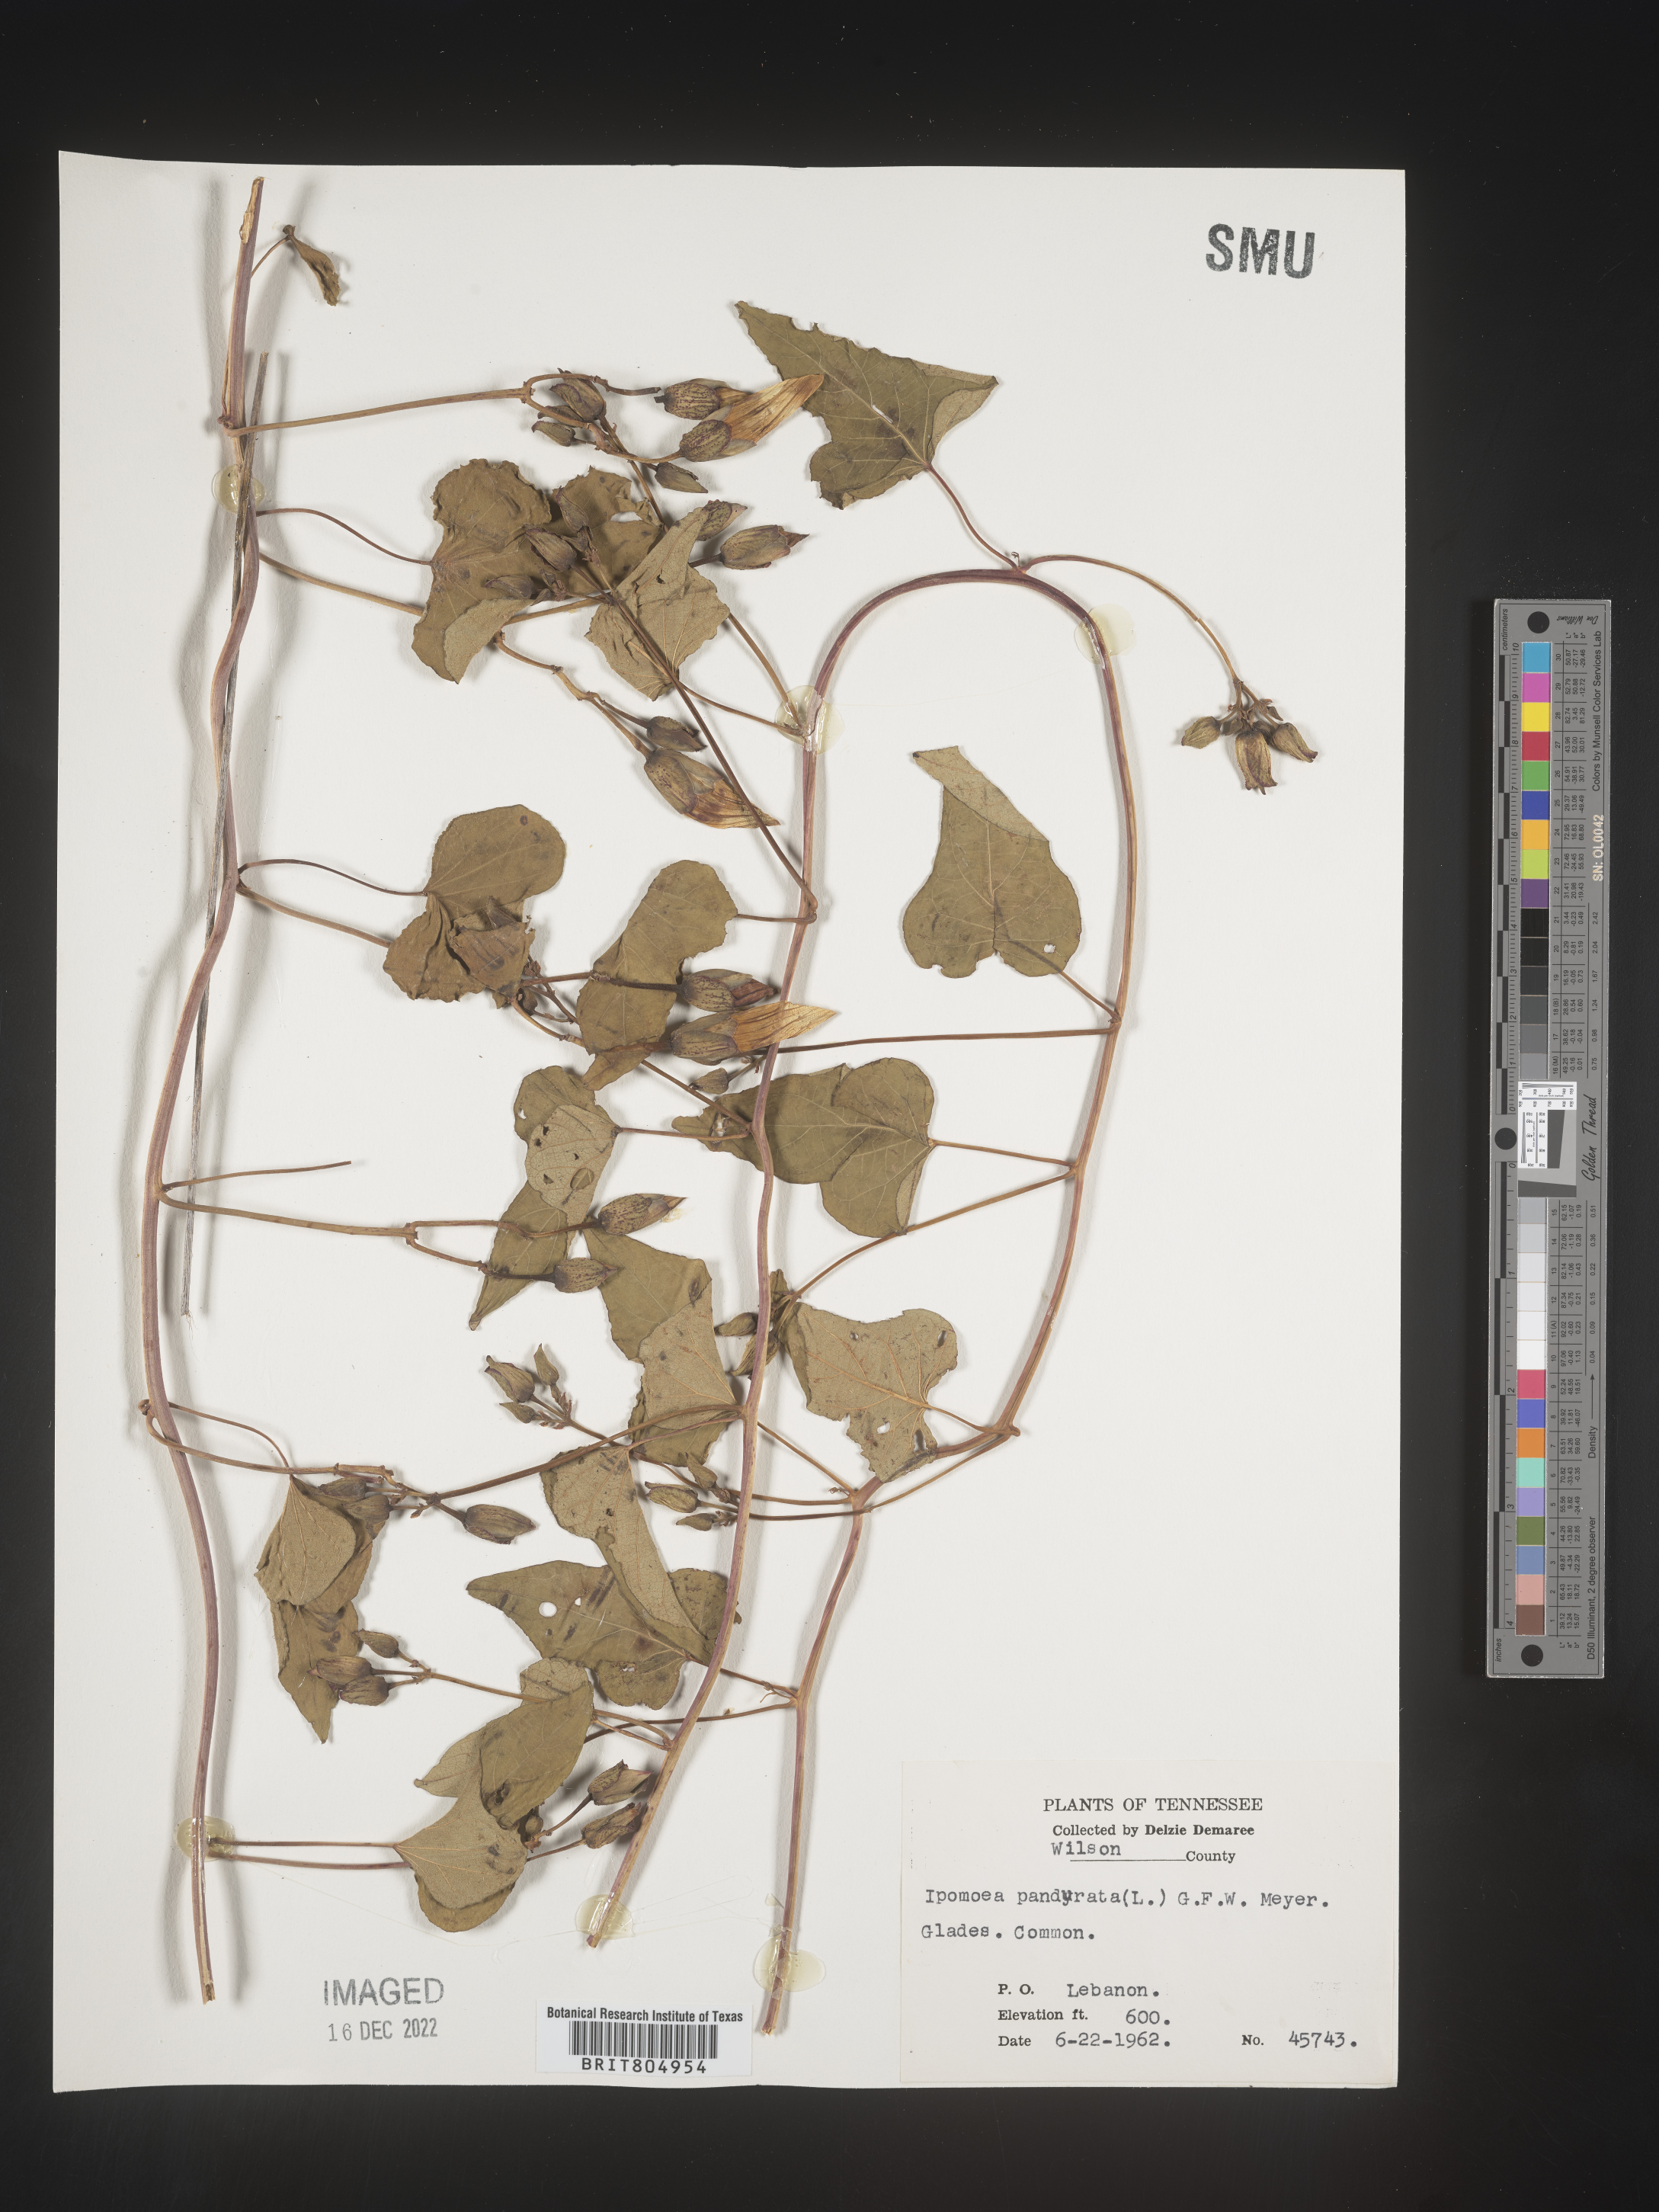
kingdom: Plantae
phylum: Tracheophyta
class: Magnoliopsida
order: Solanales
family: Convolvulaceae
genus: Ipomoea
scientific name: Ipomoea pandurata
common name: Man-of-the-earth
